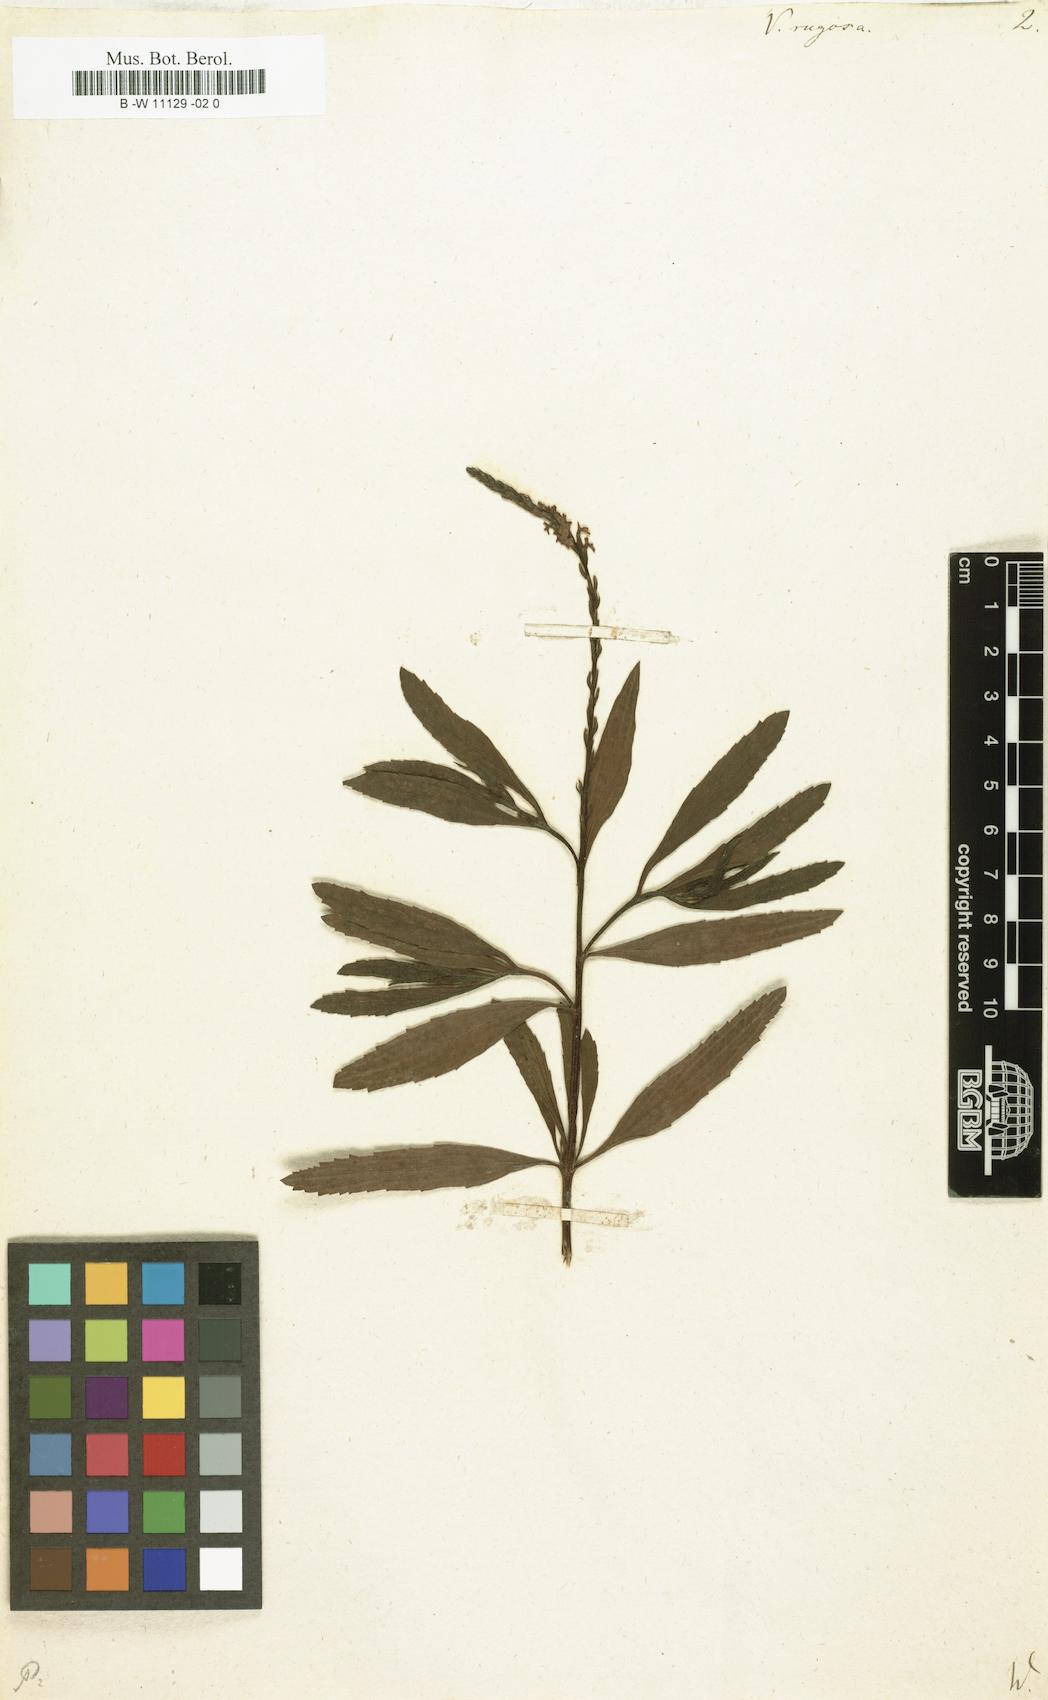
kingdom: Plantae
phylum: Tracheophyta
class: Magnoliopsida
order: Lamiales
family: Verbenaceae
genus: Verbena
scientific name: Verbena rugosa
